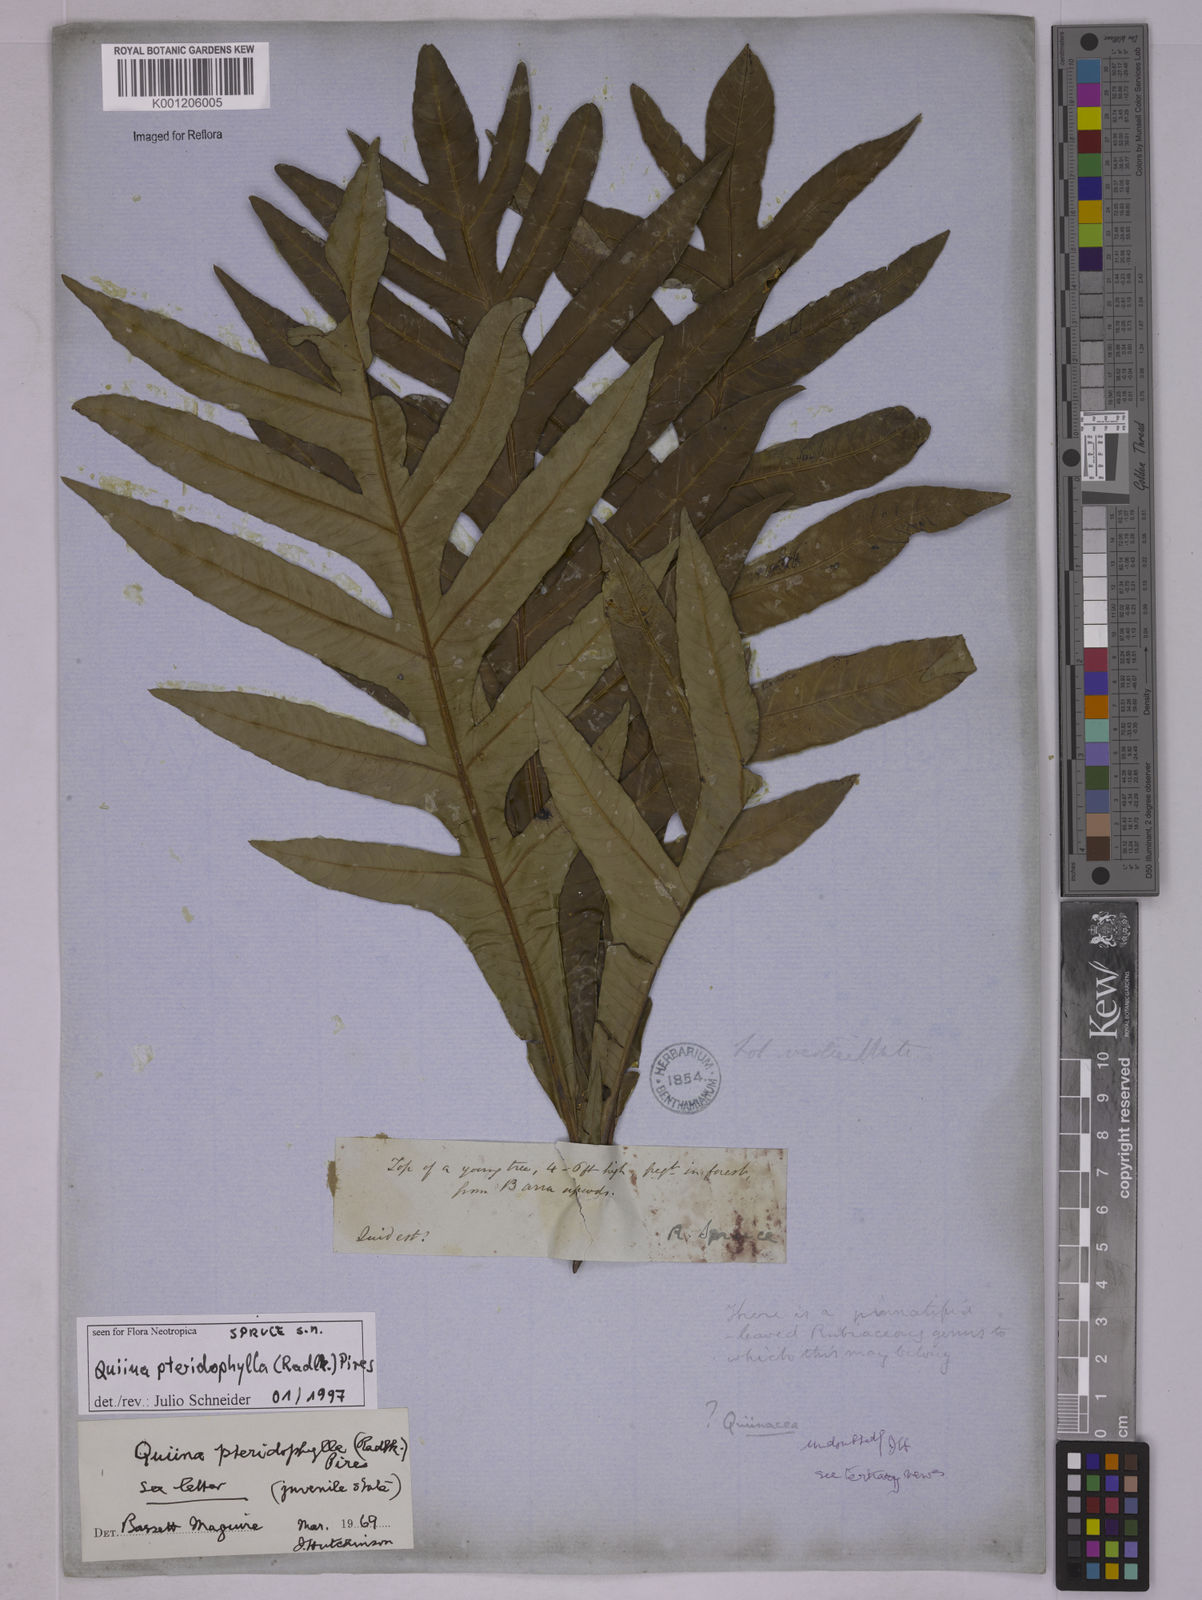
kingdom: Plantae
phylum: Tracheophyta
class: Magnoliopsida
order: Malpighiales
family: Quiinaceae
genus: Quiina
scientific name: Quiina pteridophylla
